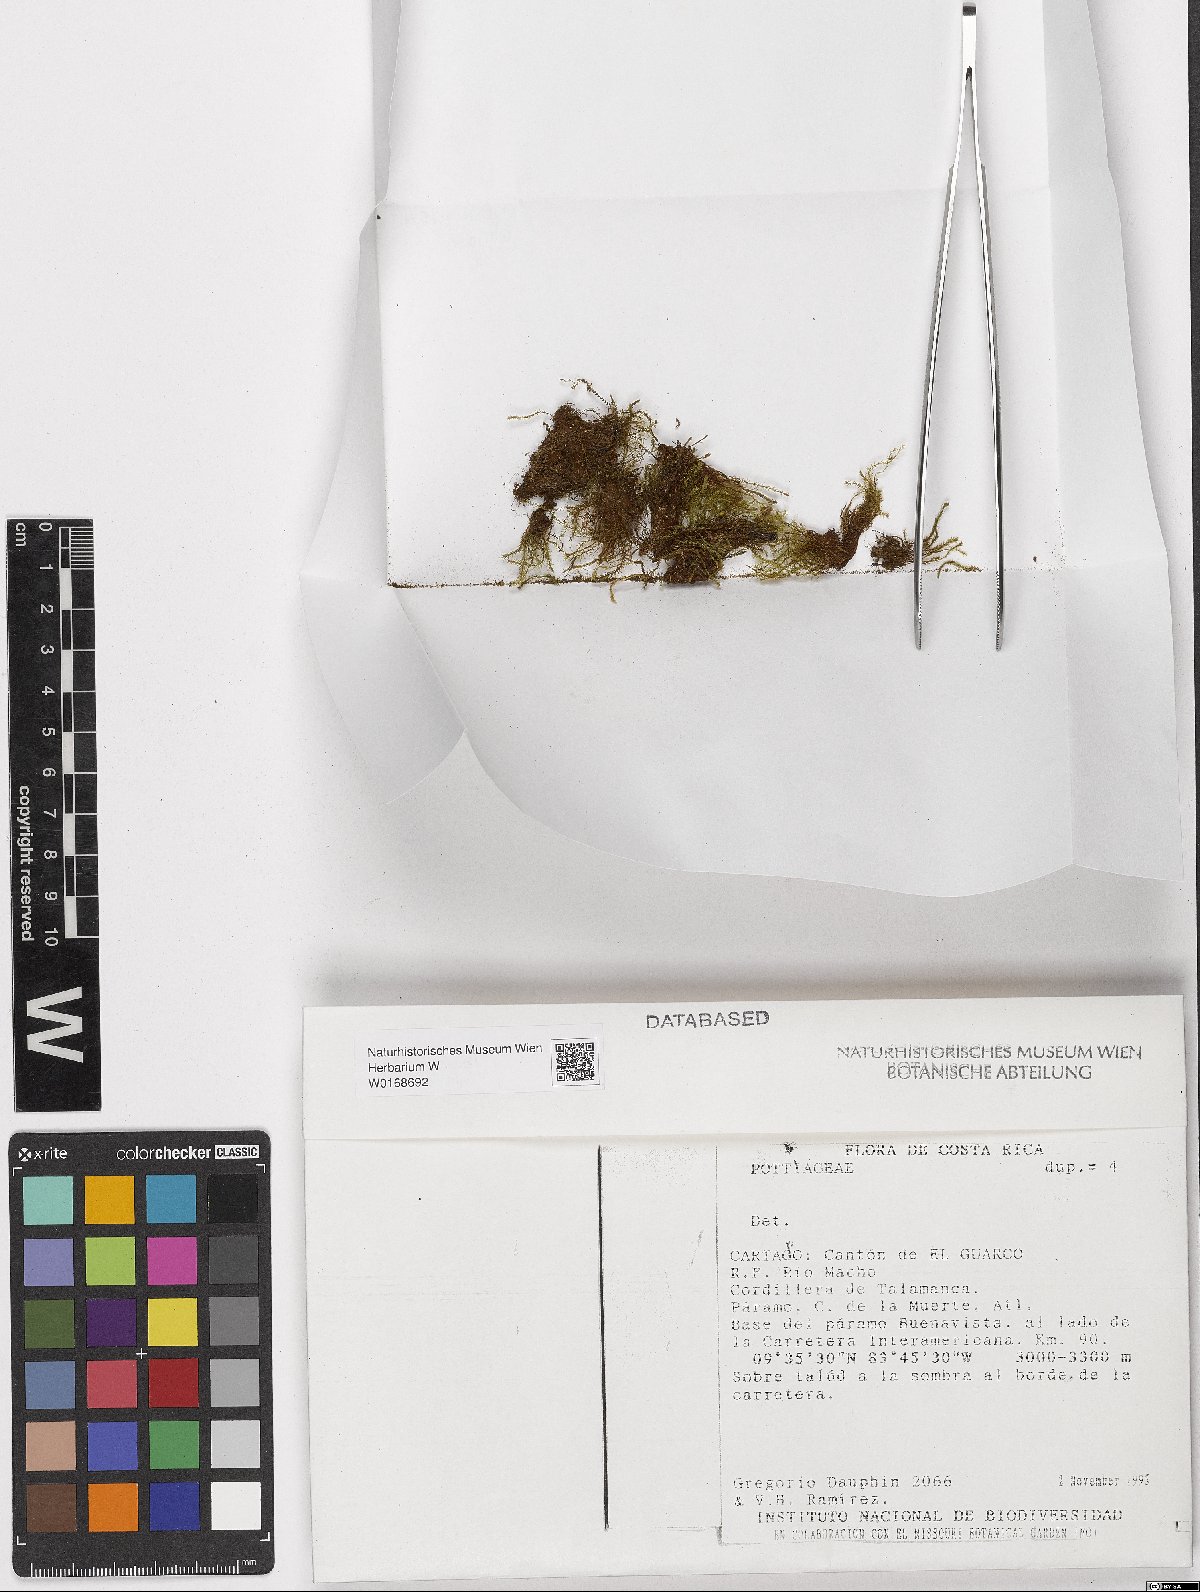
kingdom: Plantae
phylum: Bryophyta
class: Bryopsida
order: Pottiales
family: Pottiaceae
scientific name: Pottiaceae
